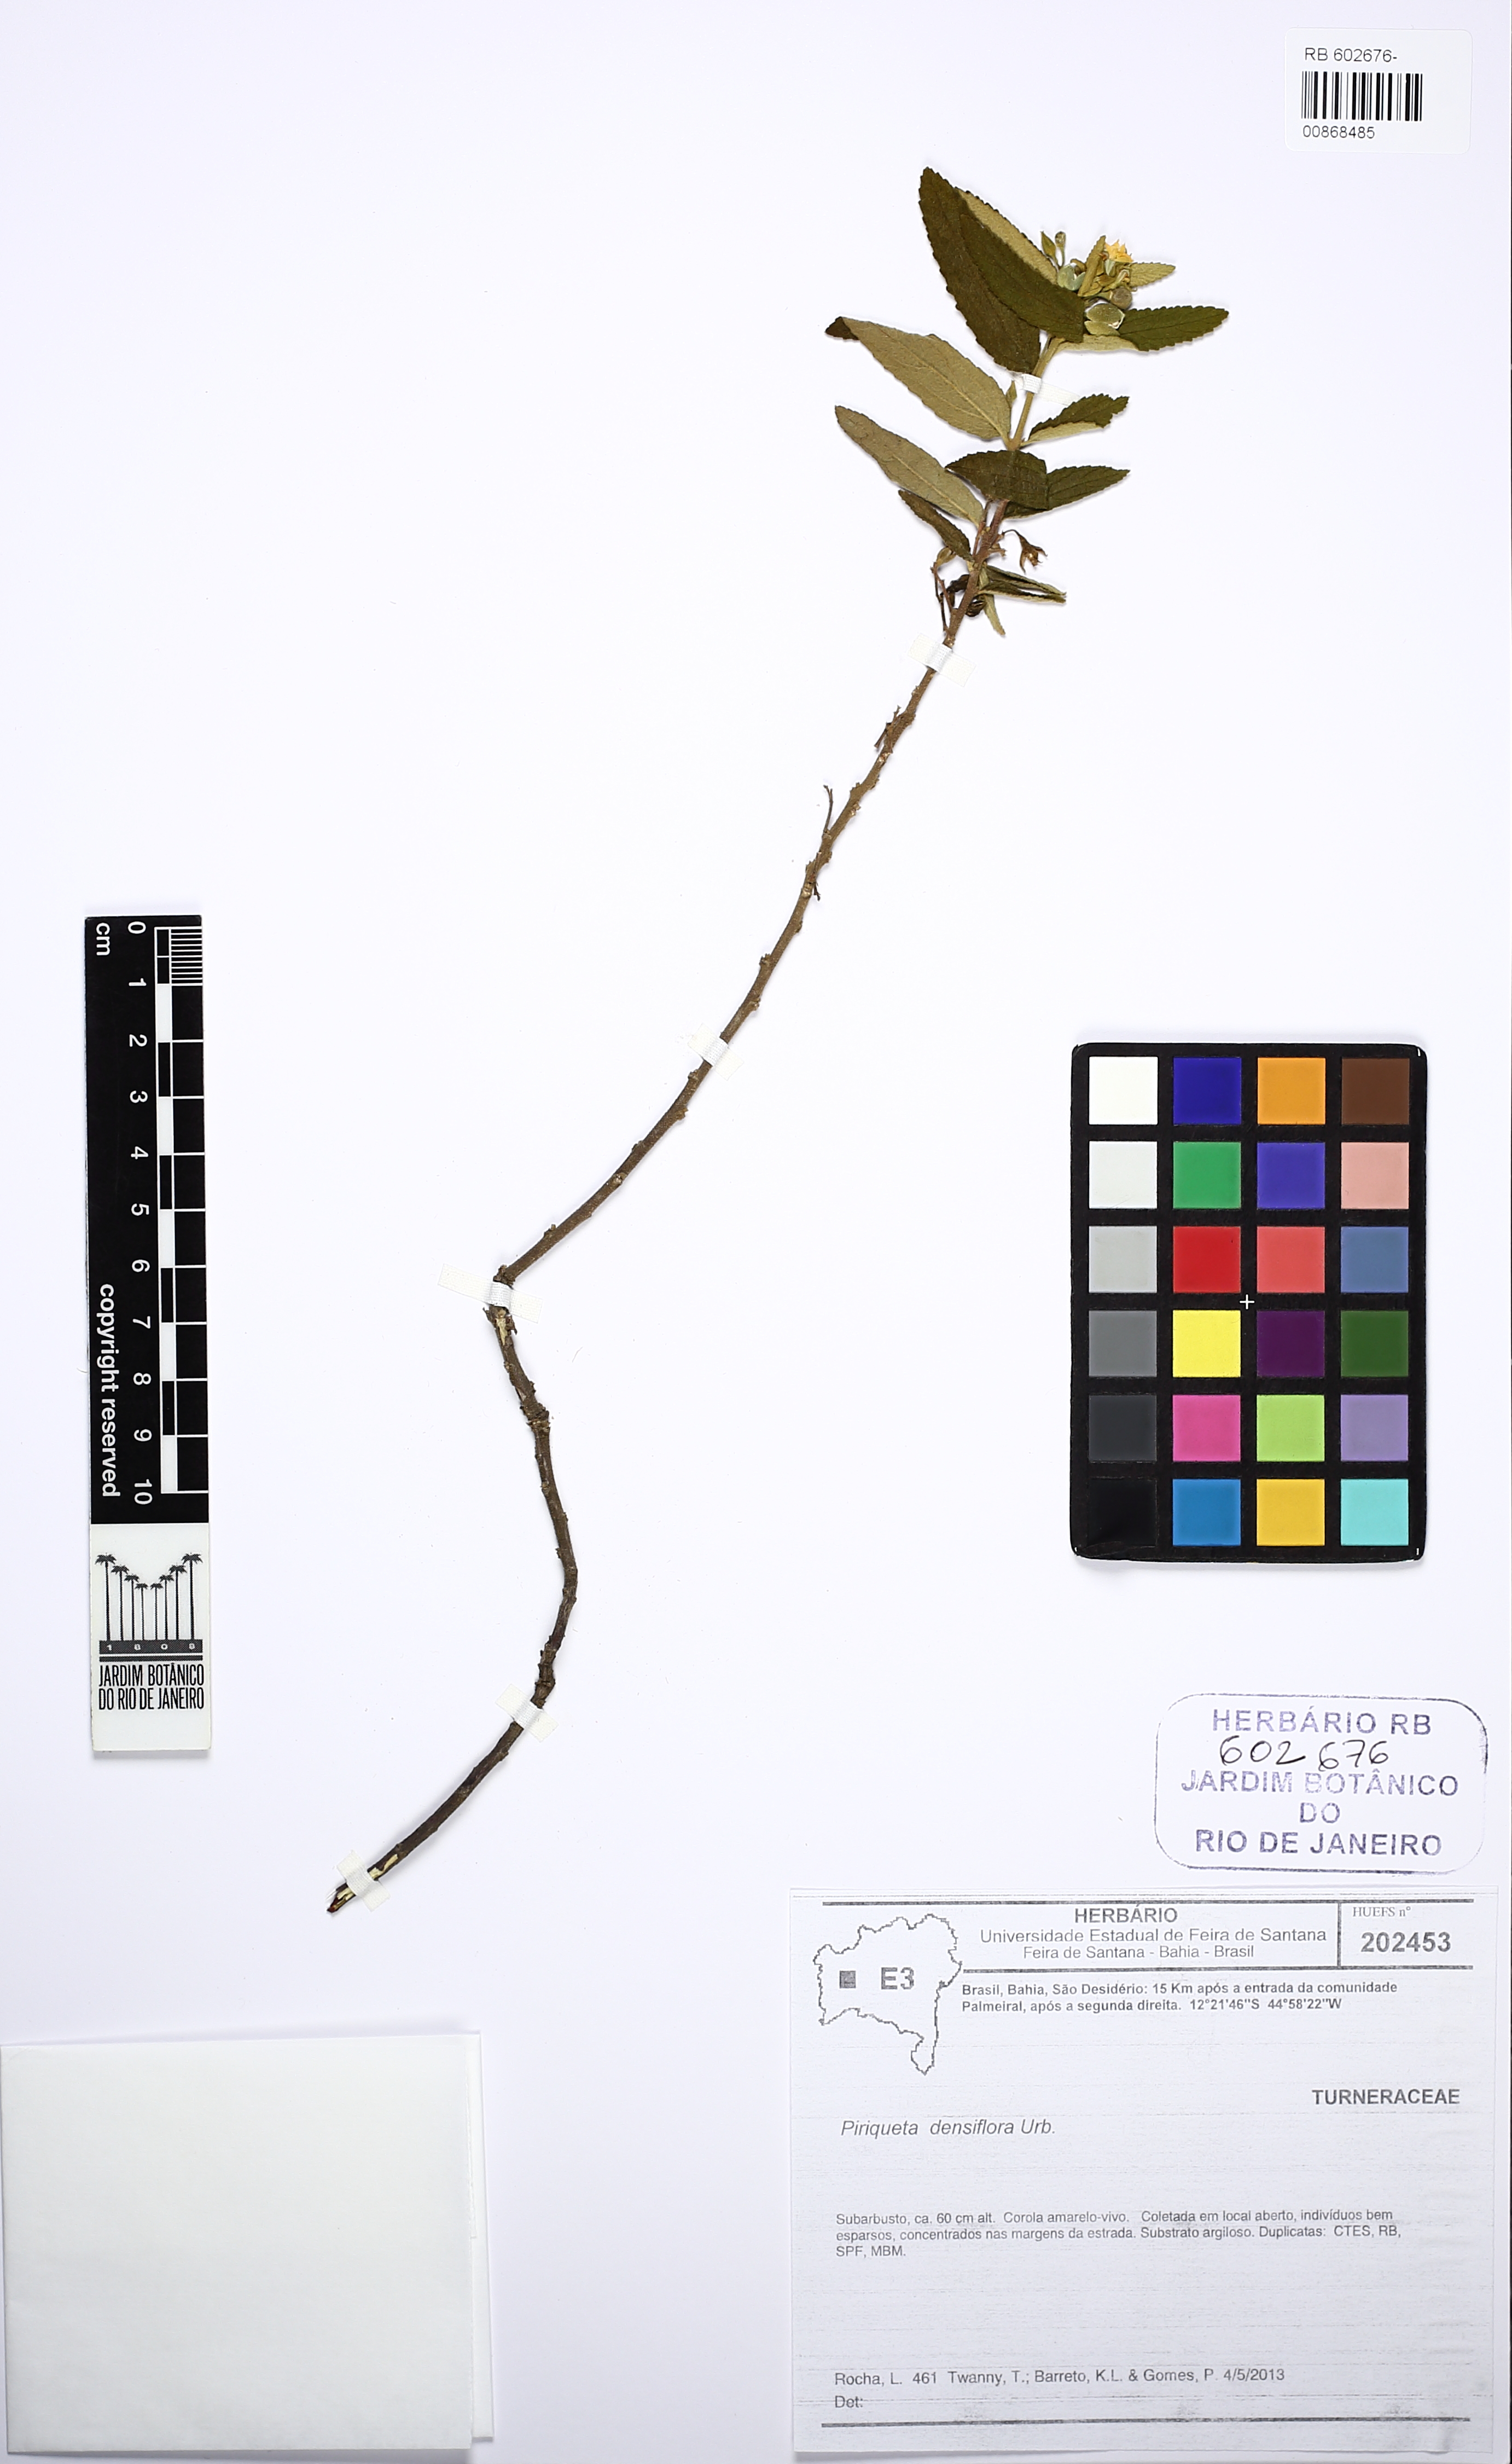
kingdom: Plantae
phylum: Tracheophyta
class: Magnoliopsida
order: Malpighiales
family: Turneraceae
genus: Piriqueta
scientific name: Piriqueta densiflora
